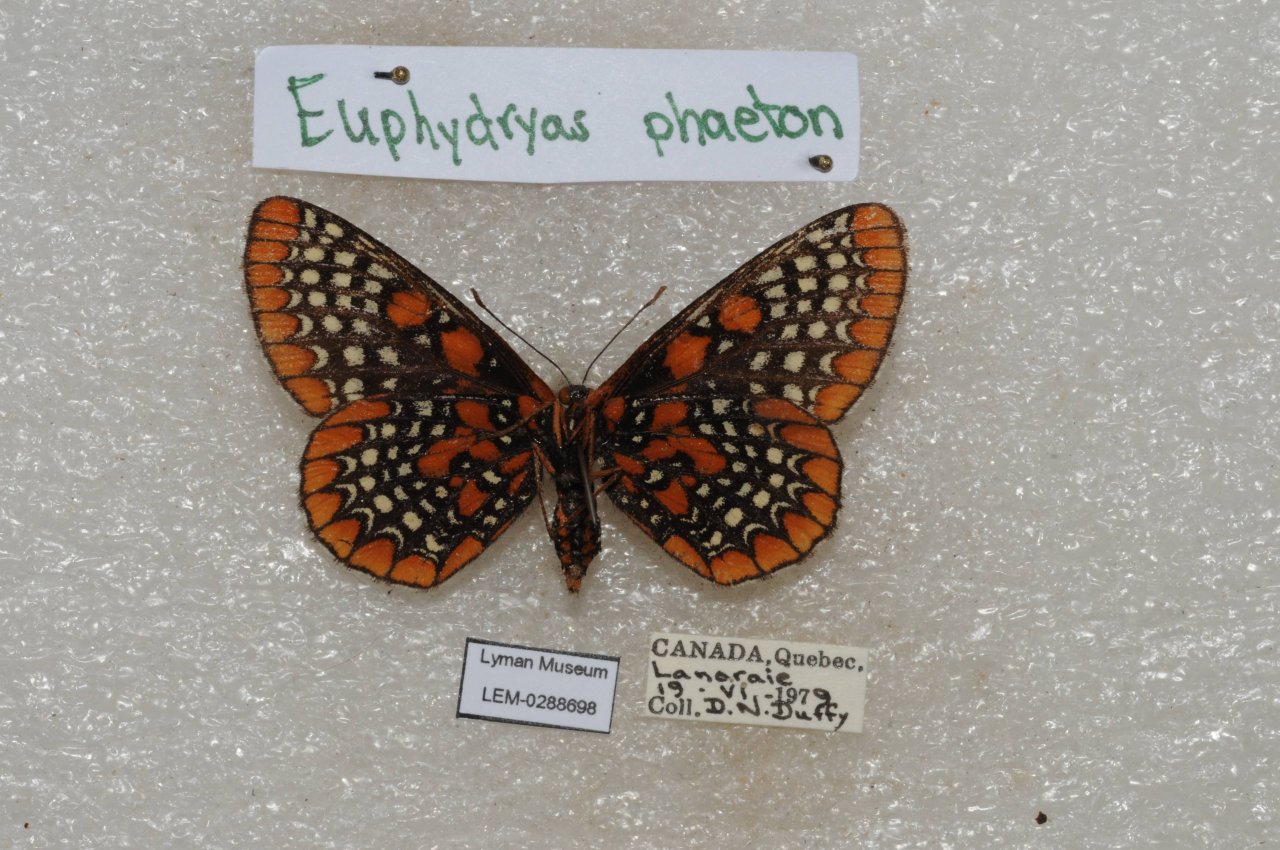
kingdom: Animalia
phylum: Arthropoda
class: Insecta
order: Lepidoptera
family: Nymphalidae
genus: Euphydryas
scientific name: Euphydryas phaeton
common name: Baltimore Checkerspot
